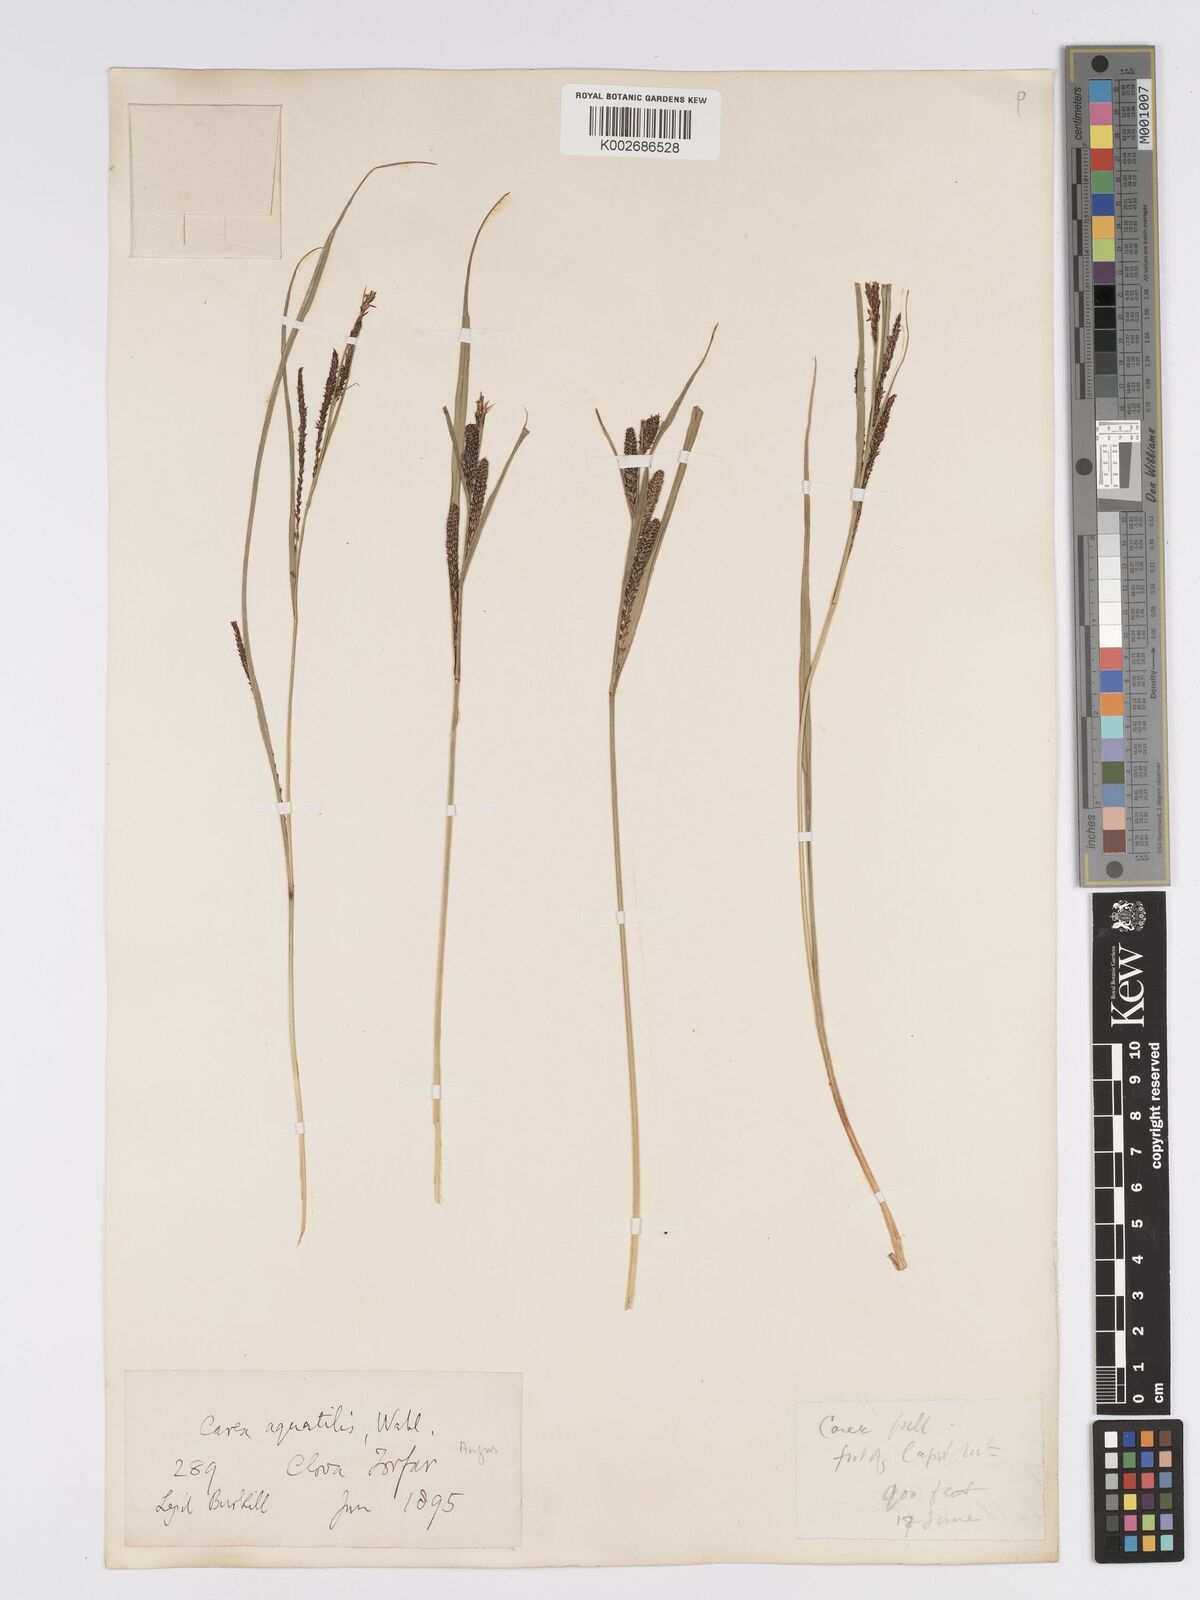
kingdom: Plantae
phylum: Tracheophyta
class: Liliopsida
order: Poales
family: Cyperaceae
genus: Carex
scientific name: Carex aquatilis
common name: Water sedge
